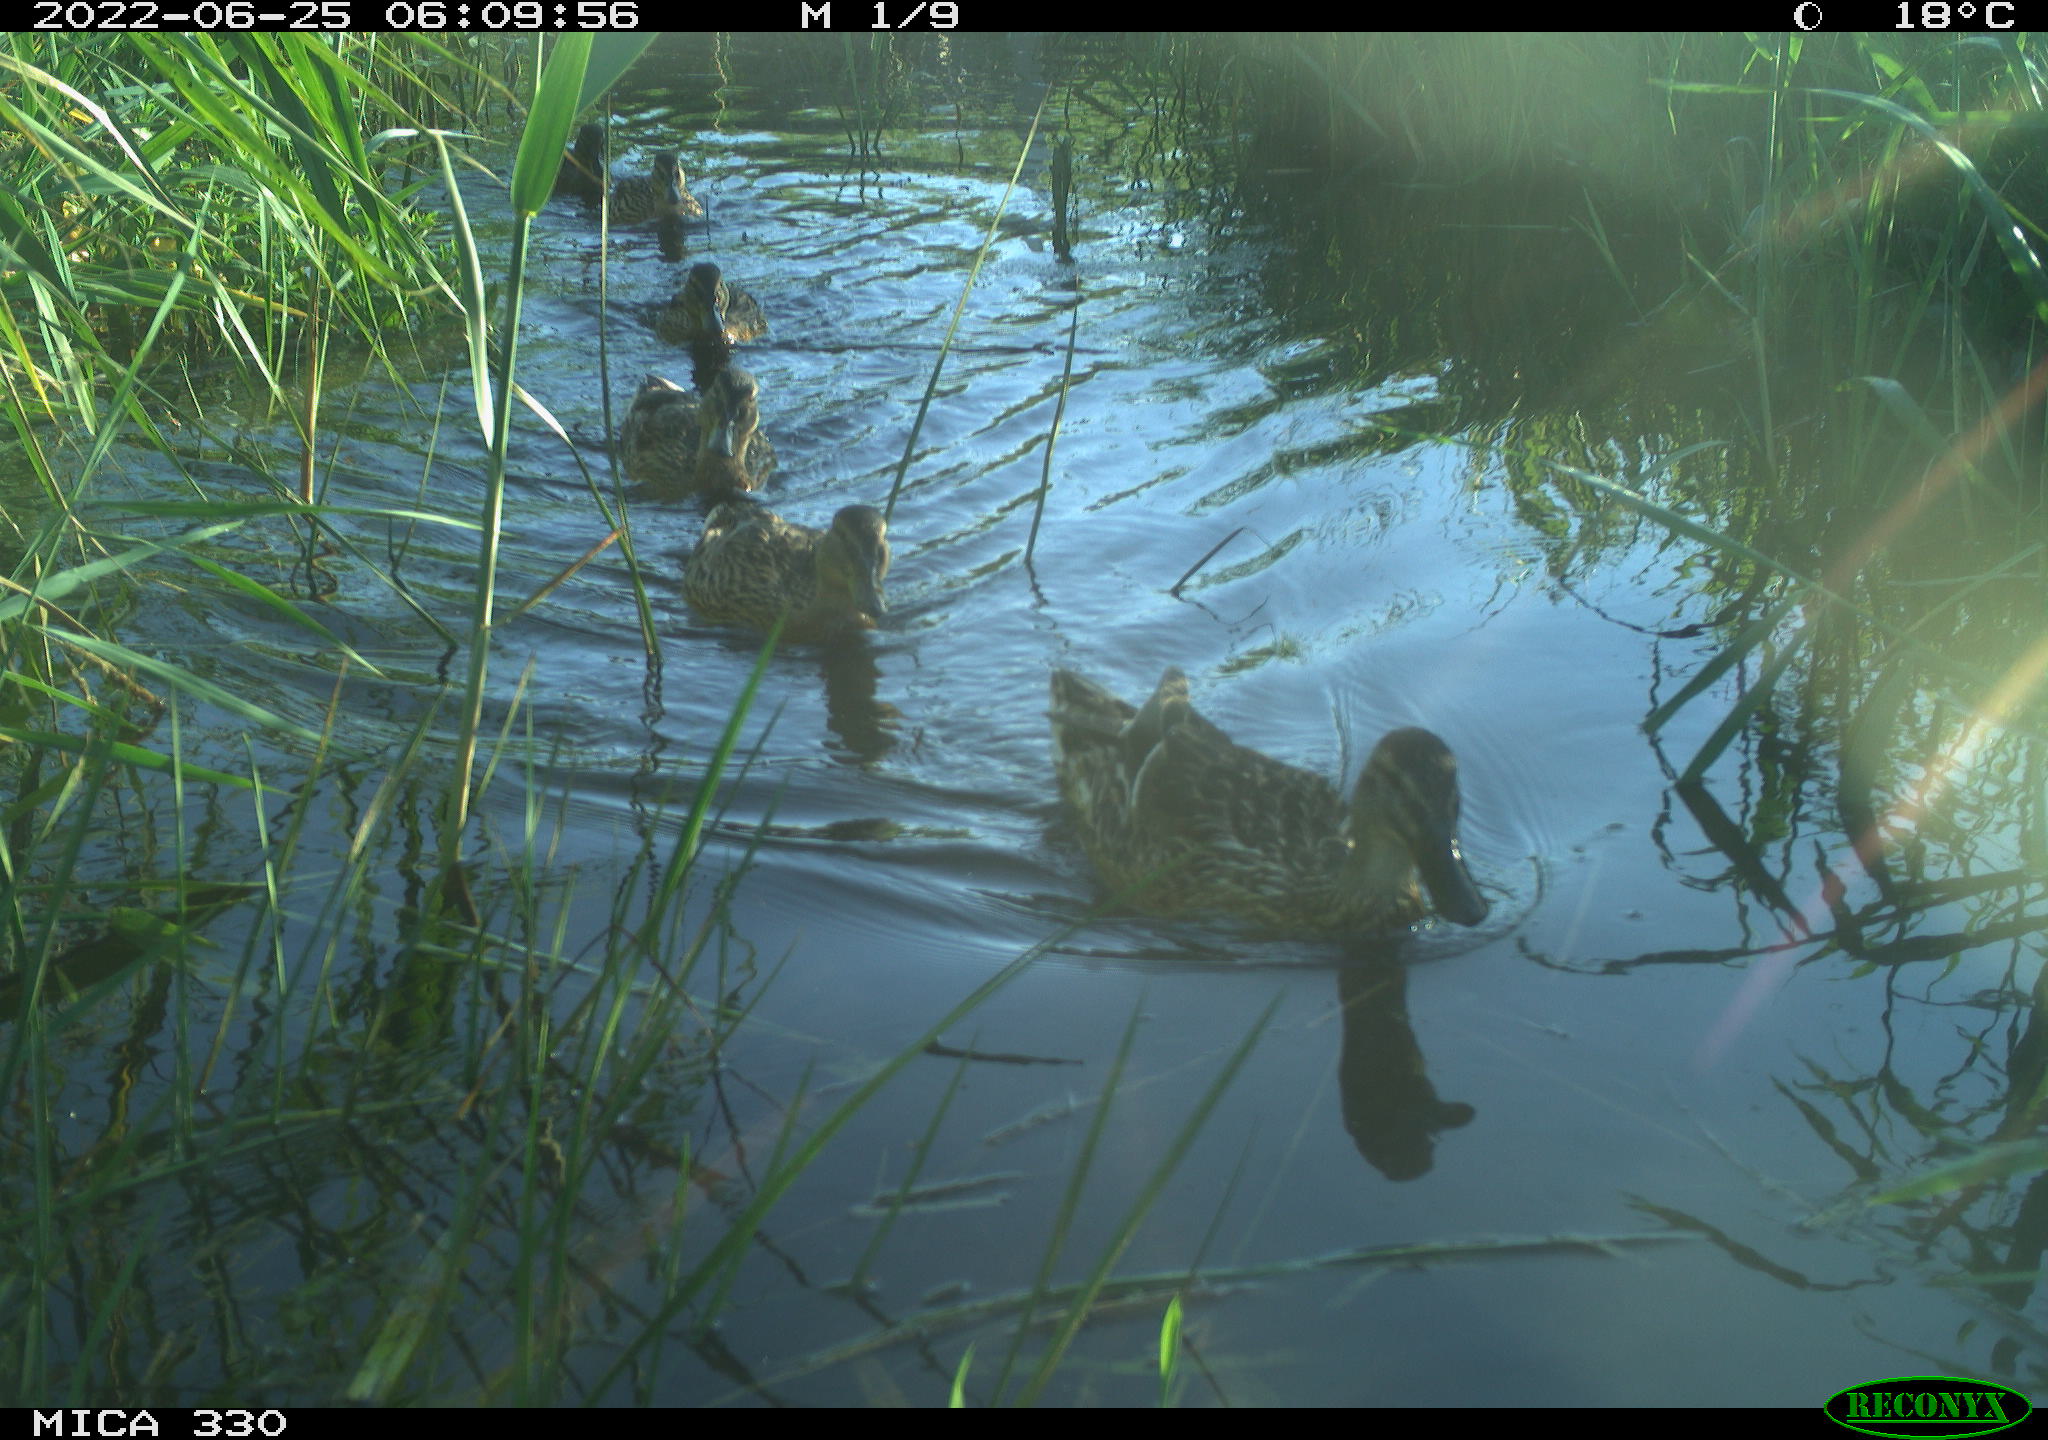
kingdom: Animalia
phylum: Chordata
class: Aves
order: Gruiformes
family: Rallidae
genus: Gallinula
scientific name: Gallinula chloropus
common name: Common moorhen
